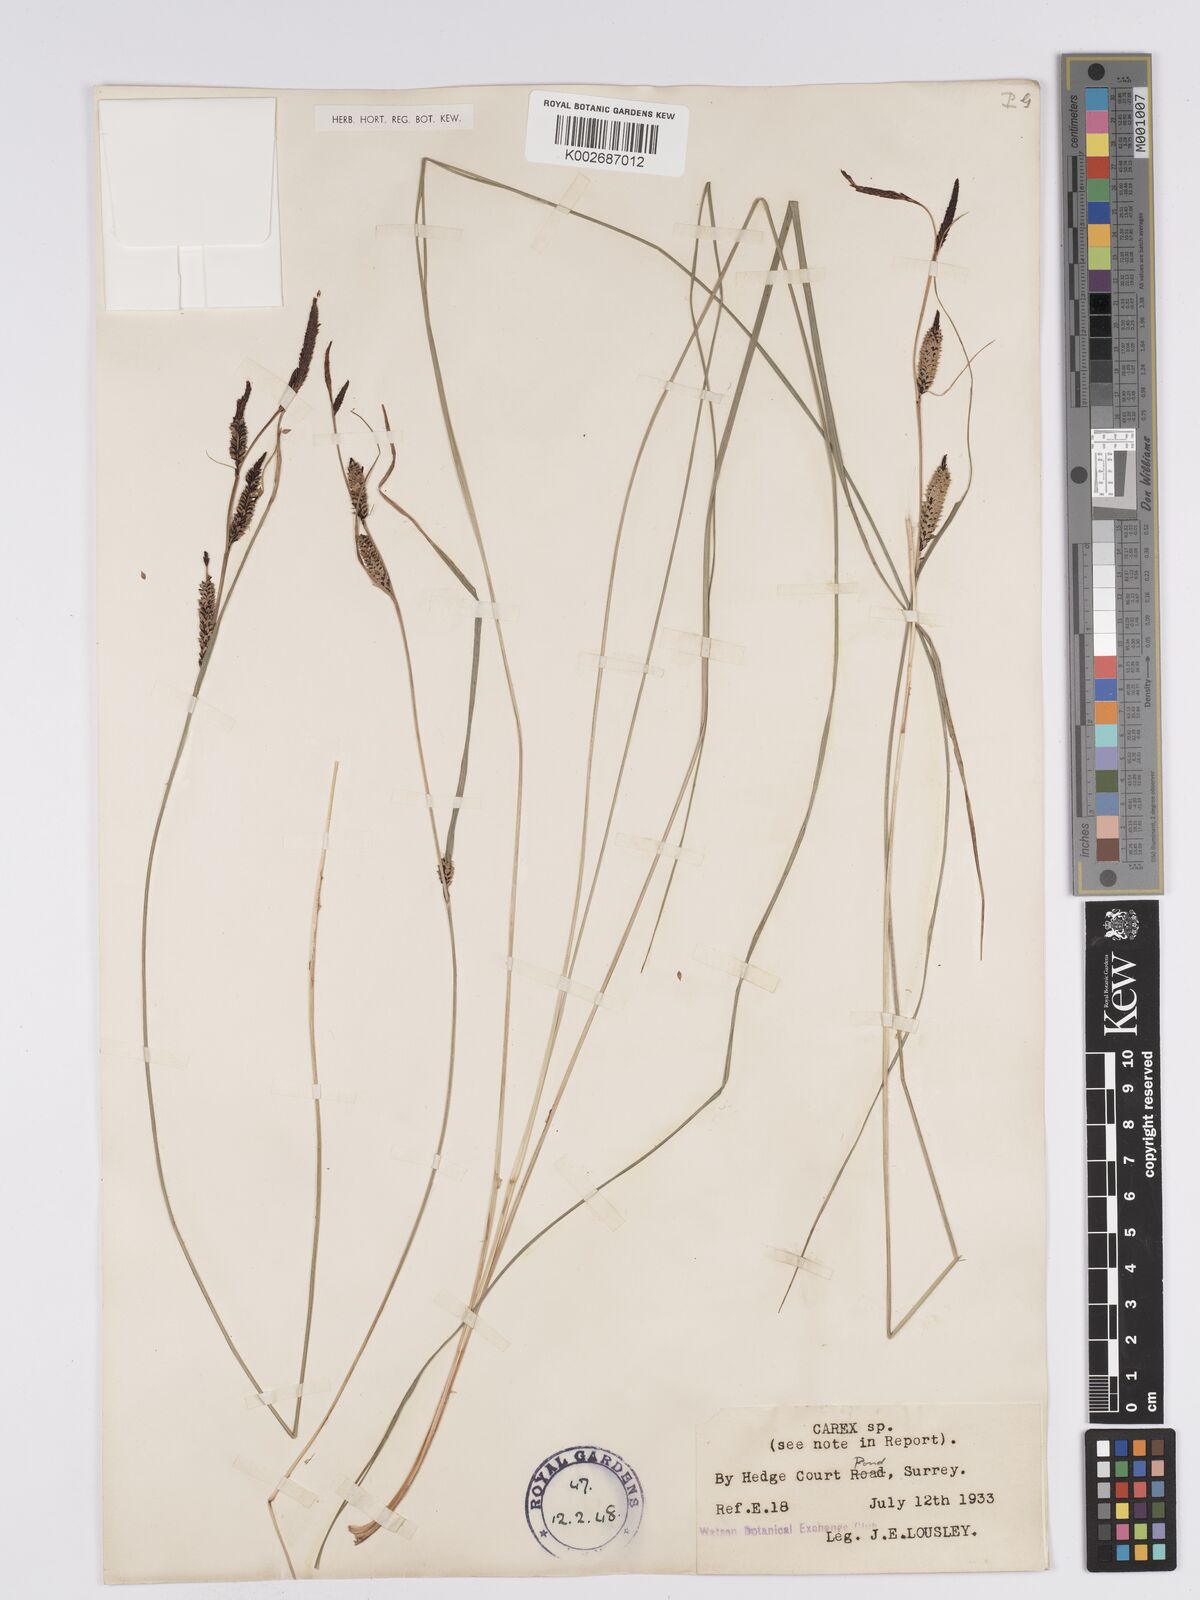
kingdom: Plantae
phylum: Tracheophyta
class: Liliopsida
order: Poales
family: Cyperaceae
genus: Carex
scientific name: Carex nigra
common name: Common sedge
